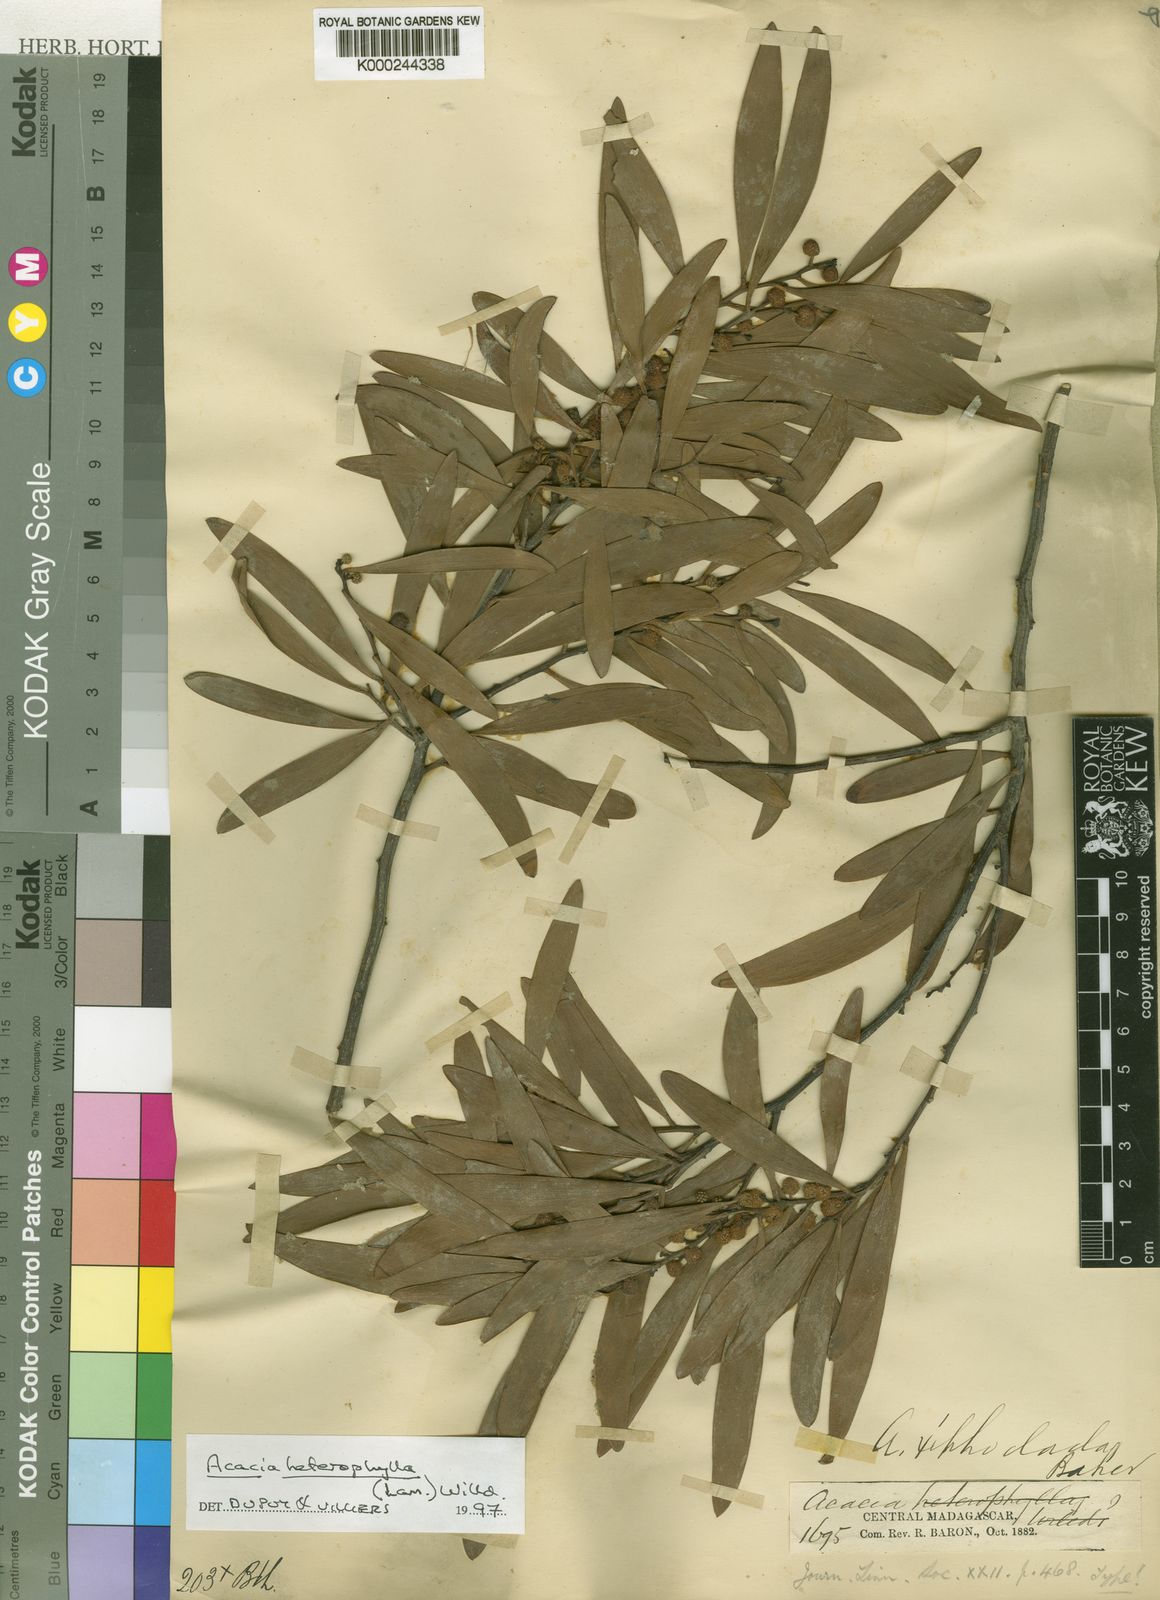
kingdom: Plantae
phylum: Tracheophyta
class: Magnoliopsida
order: Fabales
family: Fabaceae
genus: Acacia
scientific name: Acacia heterophylla
